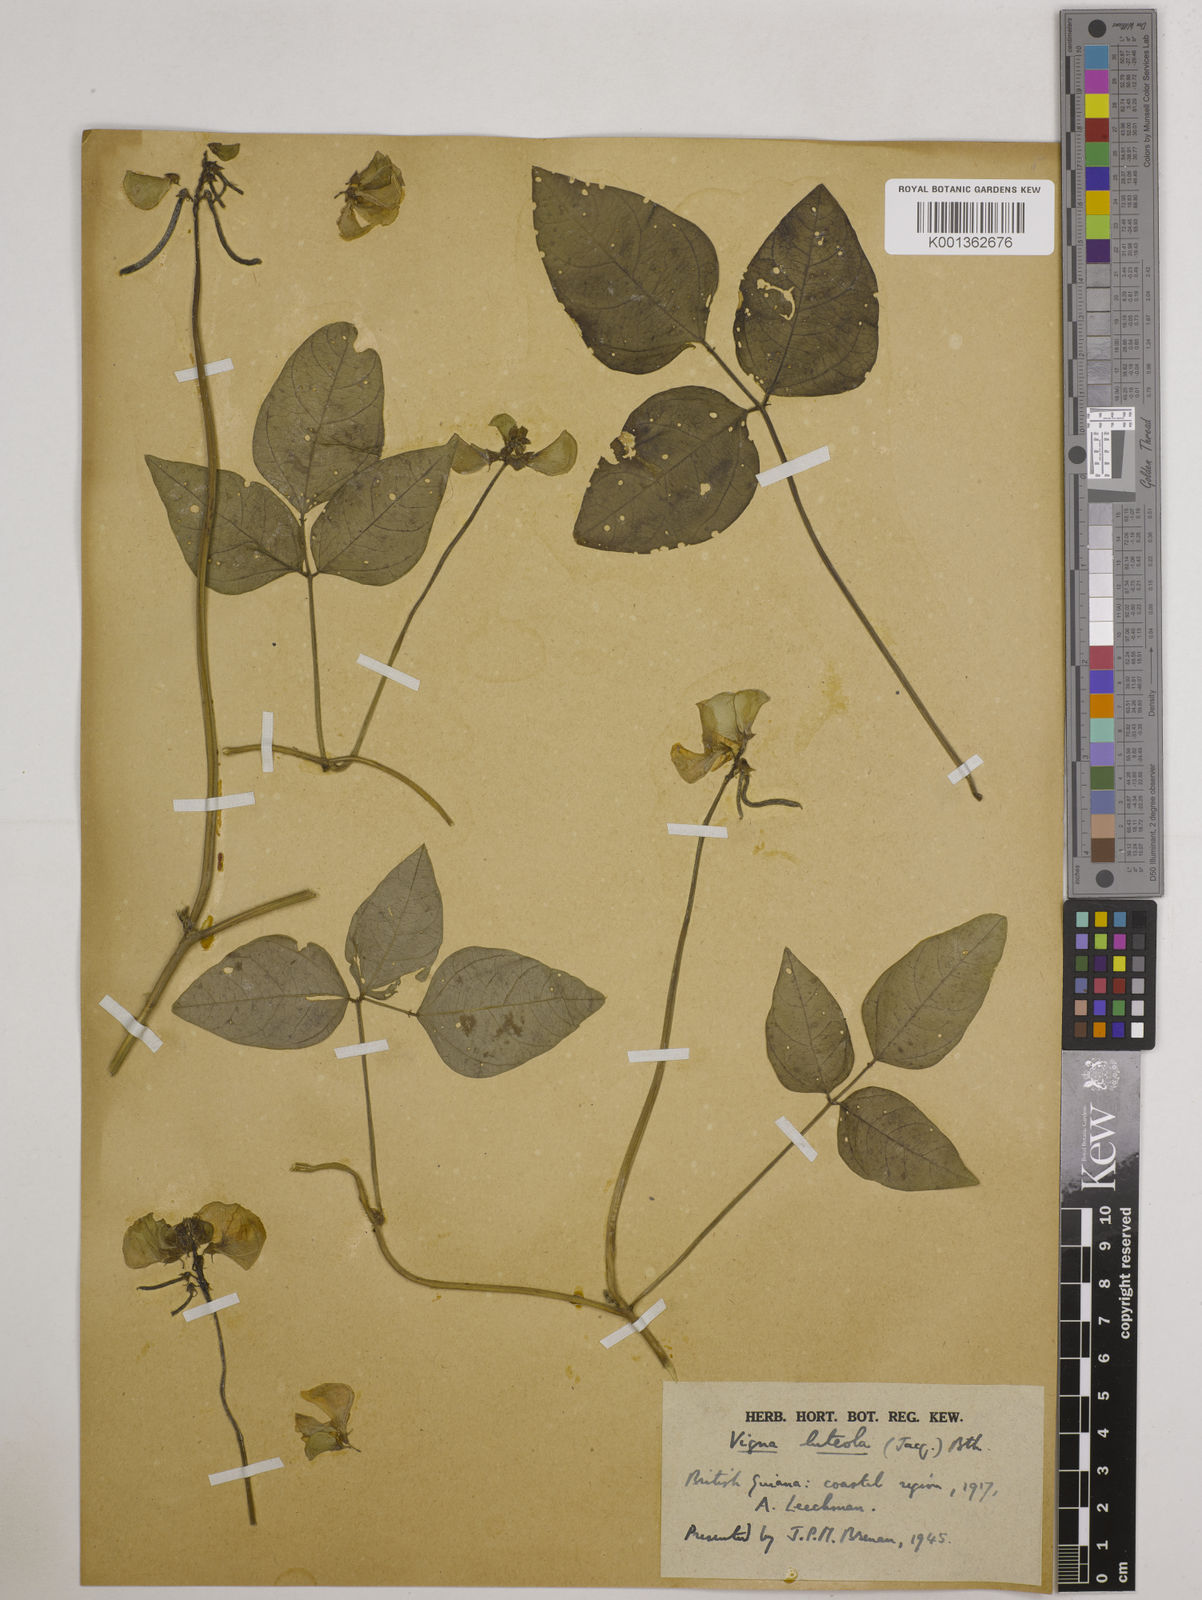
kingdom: Plantae
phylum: Tracheophyta
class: Magnoliopsida
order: Fabales
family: Fabaceae
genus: Vigna
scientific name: Vigna luteola
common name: Hairypod cowpea
